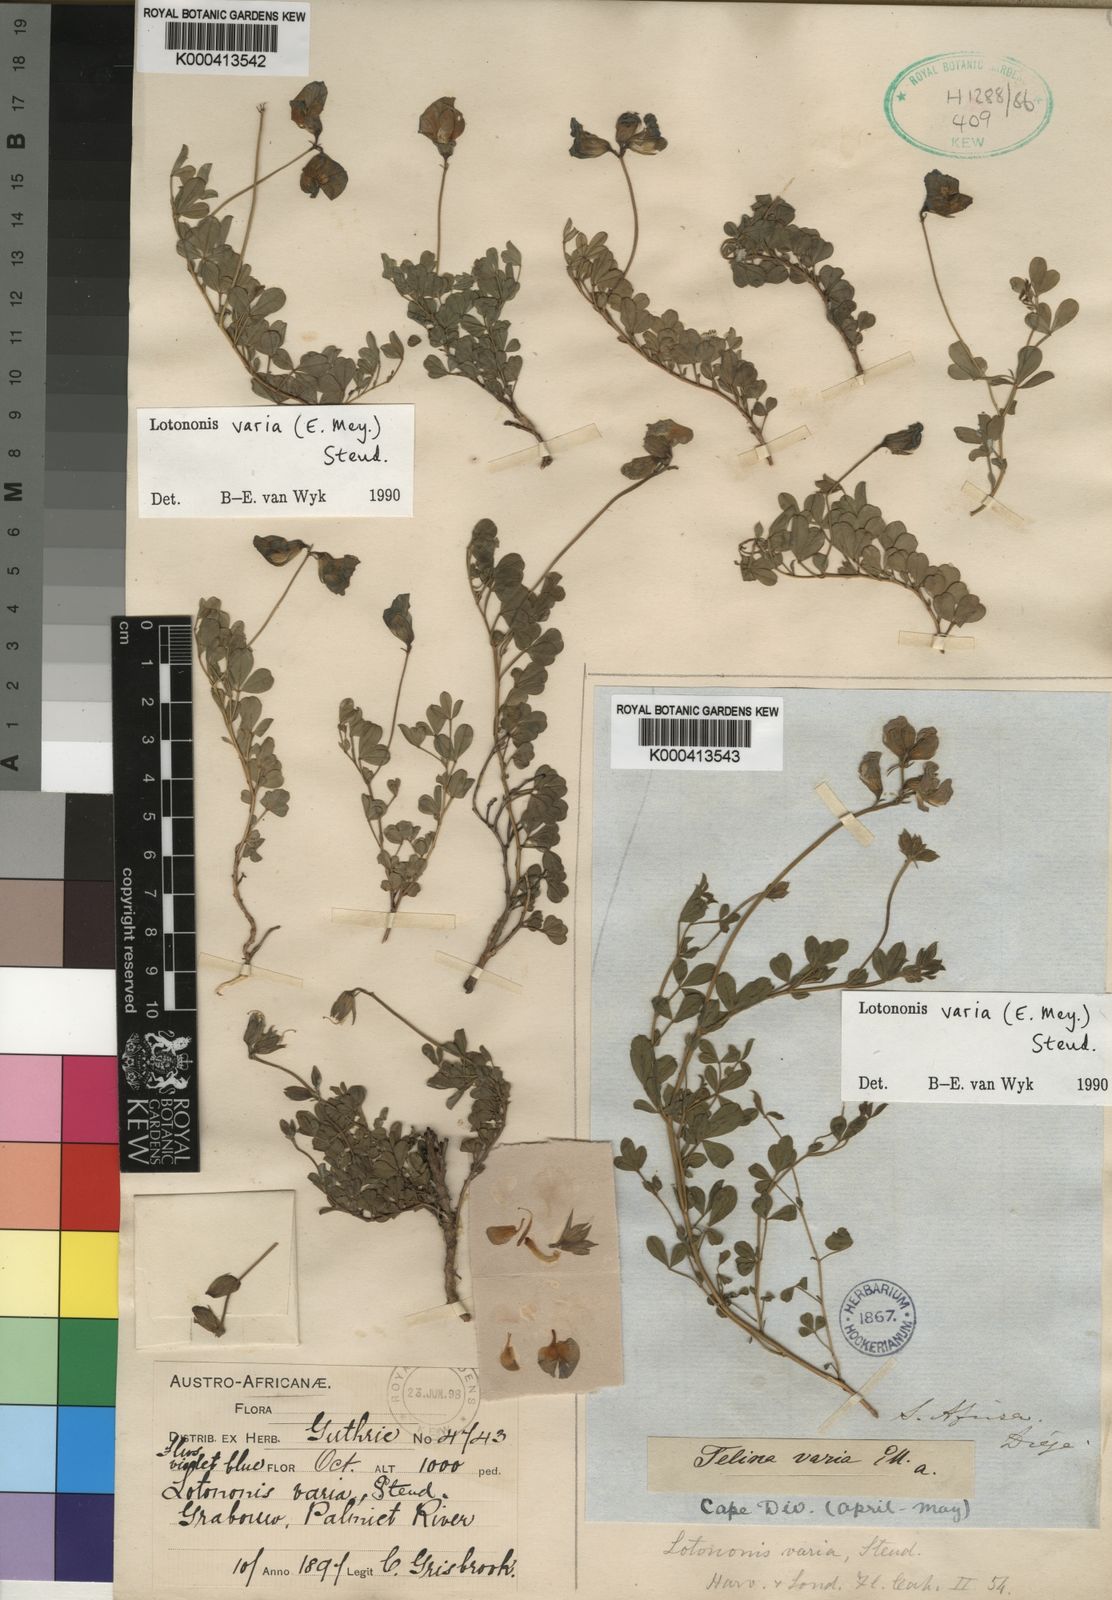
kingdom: Plantae
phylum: Tracheophyta
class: Magnoliopsida
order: Fabales
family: Fabaceae
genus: Lotononis
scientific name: Lotononis varia
